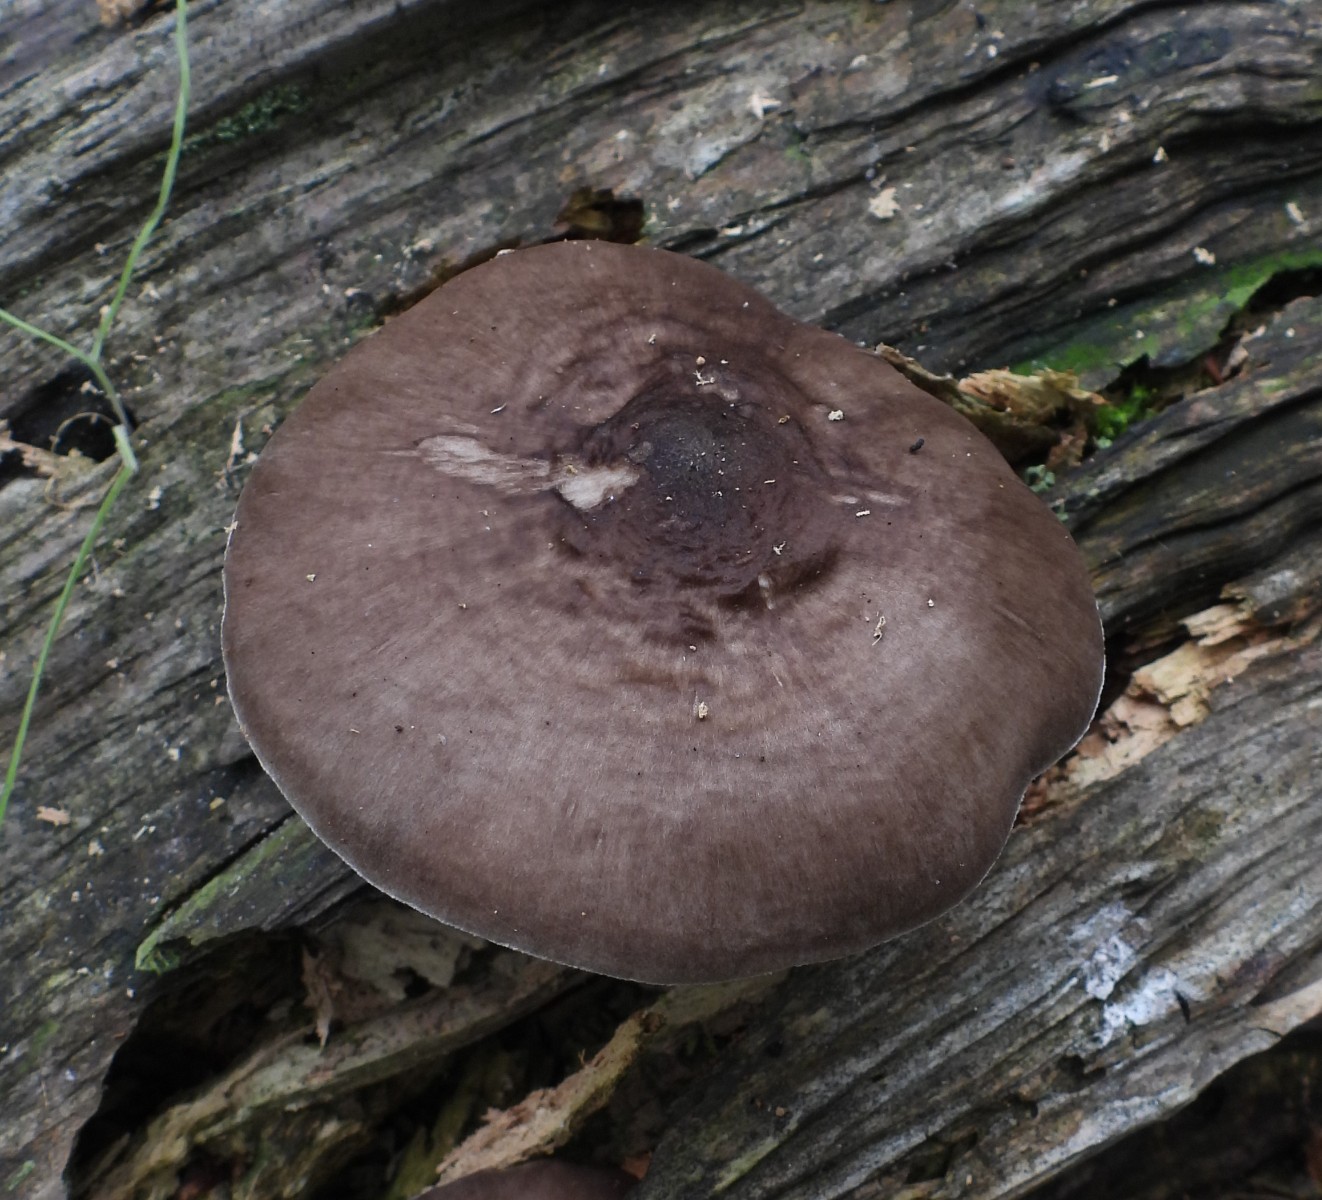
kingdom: Fungi
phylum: Basidiomycota
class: Agaricomycetes
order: Agaricales
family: Pluteaceae
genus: Pluteus
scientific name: Pluteus cervinus
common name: sodfarvet skærmhat
